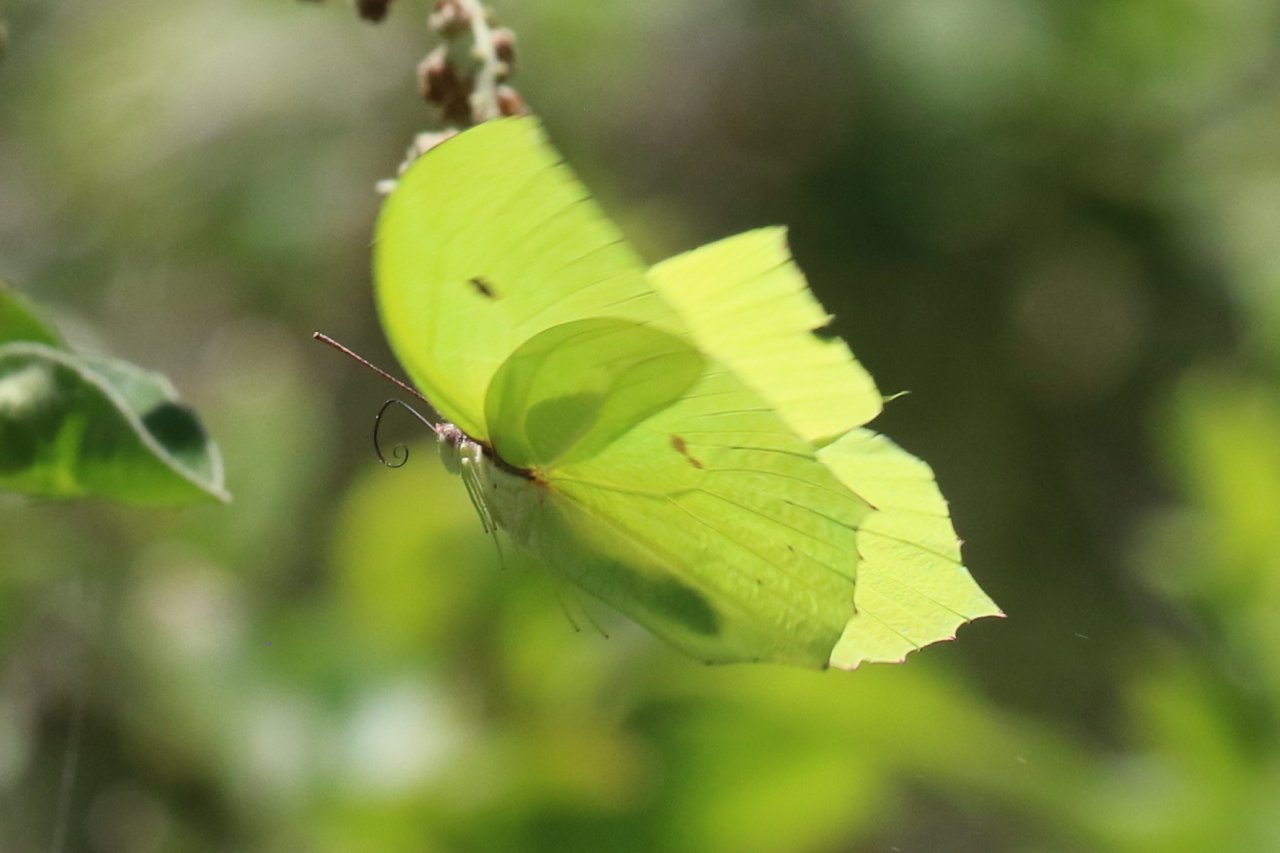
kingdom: Animalia
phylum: Arthropoda
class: Insecta
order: Lepidoptera
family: Pieridae
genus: Anteos
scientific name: Anteos maerula
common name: Yellow Angled-Sulphur
